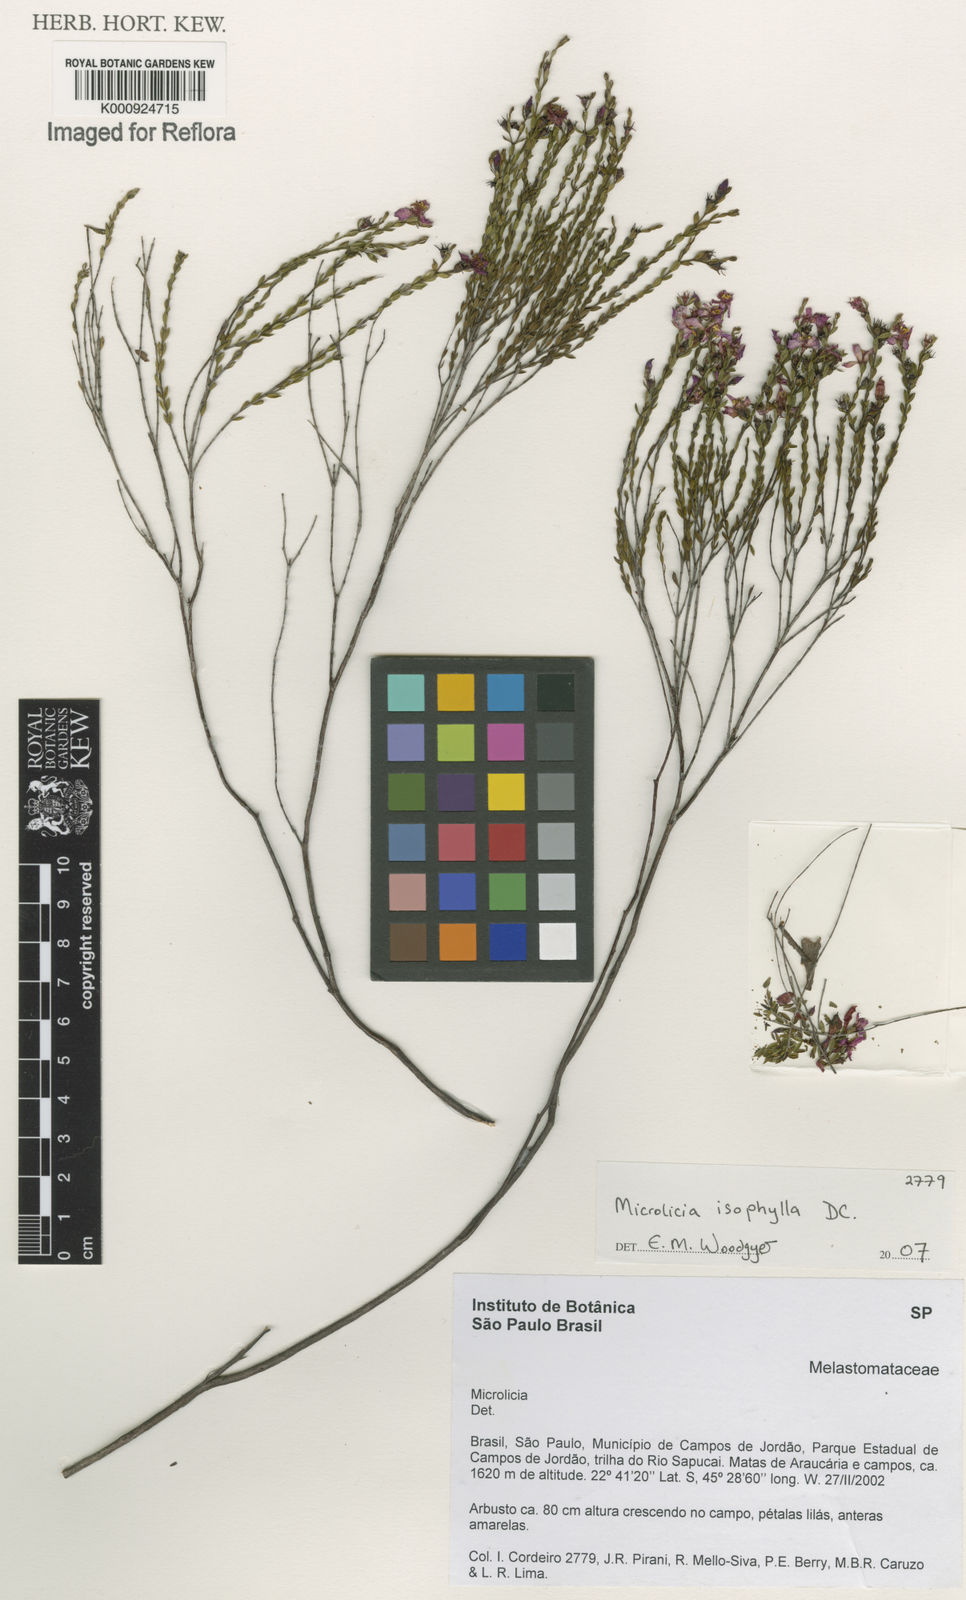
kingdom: Plantae
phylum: Tracheophyta
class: Magnoliopsida
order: Myrtales
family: Melastomataceae
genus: Microlicia
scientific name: Microlicia isophylla
